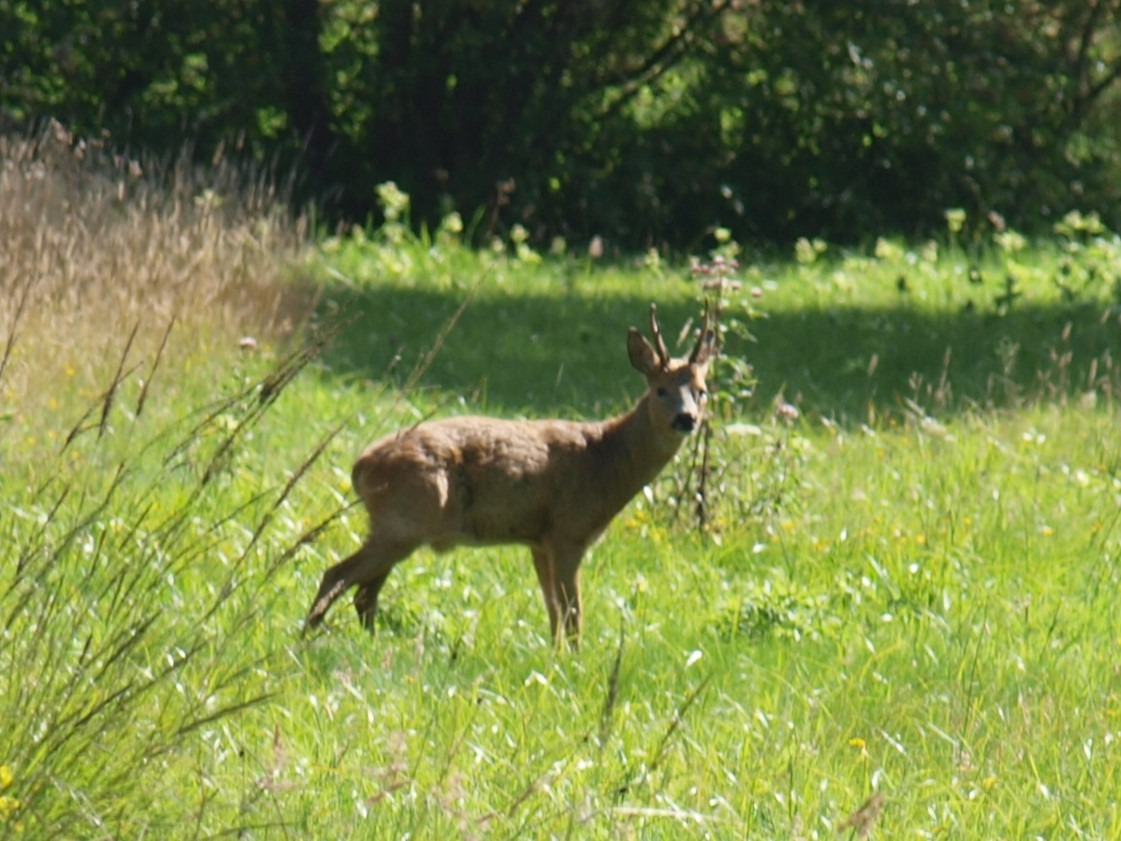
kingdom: Animalia
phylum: Chordata
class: Mammalia
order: Artiodactyla
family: Cervidae
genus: Capreolus
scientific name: Capreolus capreolus
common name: Rådyr
